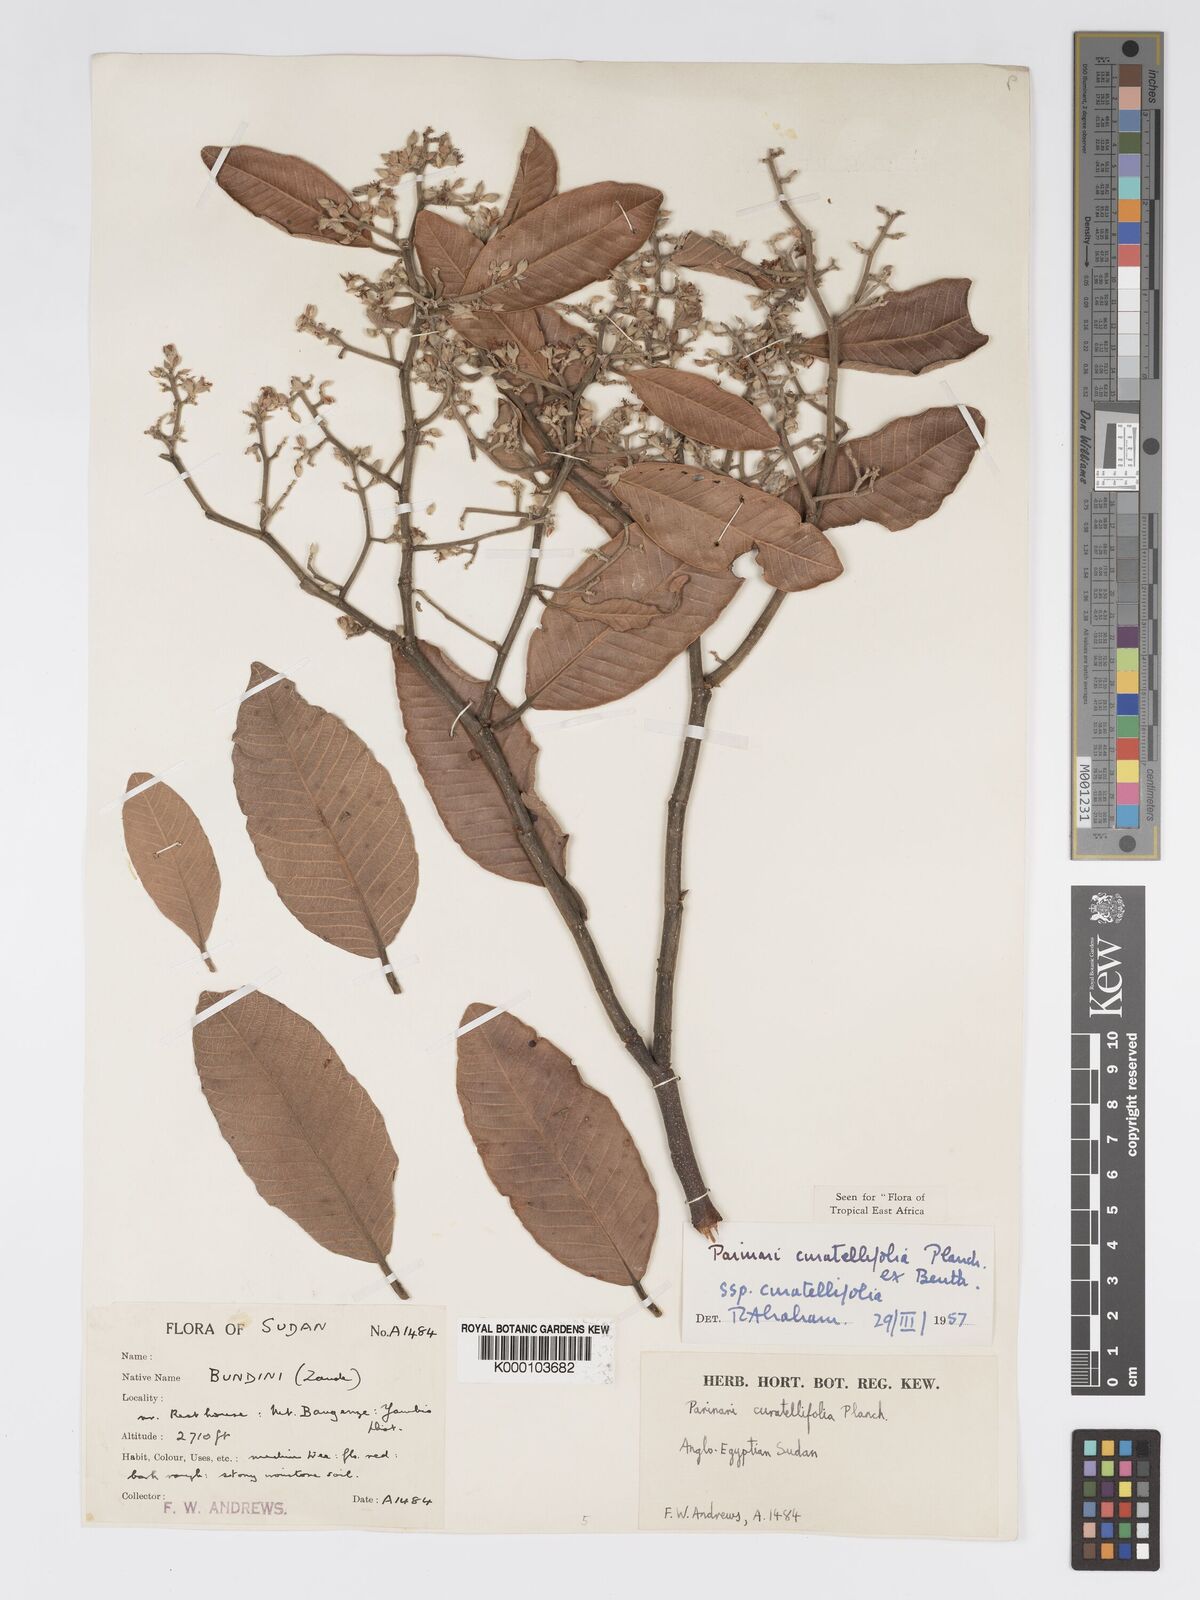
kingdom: Plantae
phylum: Tracheophyta
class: Magnoliopsida
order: Malpighiales
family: Chrysobalanaceae
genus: Parinari
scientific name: Parinari curatellifolia
